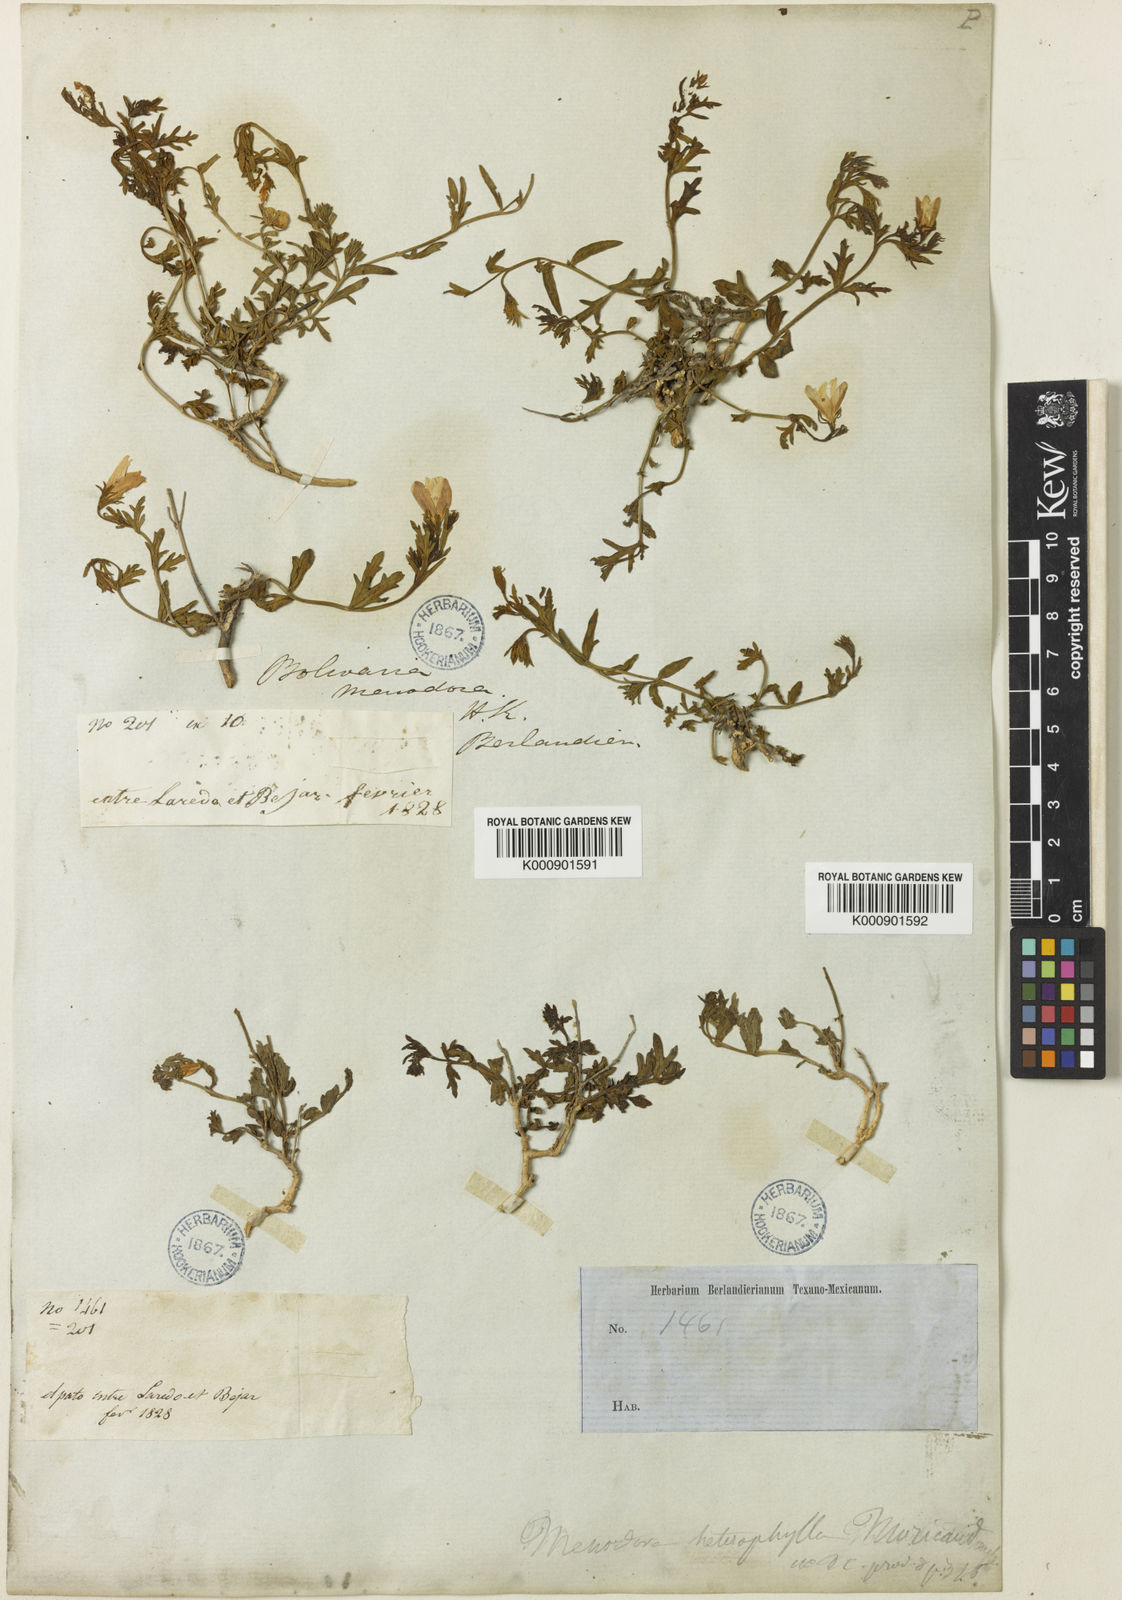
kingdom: Plantae
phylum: Tracheophyta
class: Magnoliopsida
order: Lamiales
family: Oleaceae
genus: Menodora
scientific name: Menodora heterophylla
